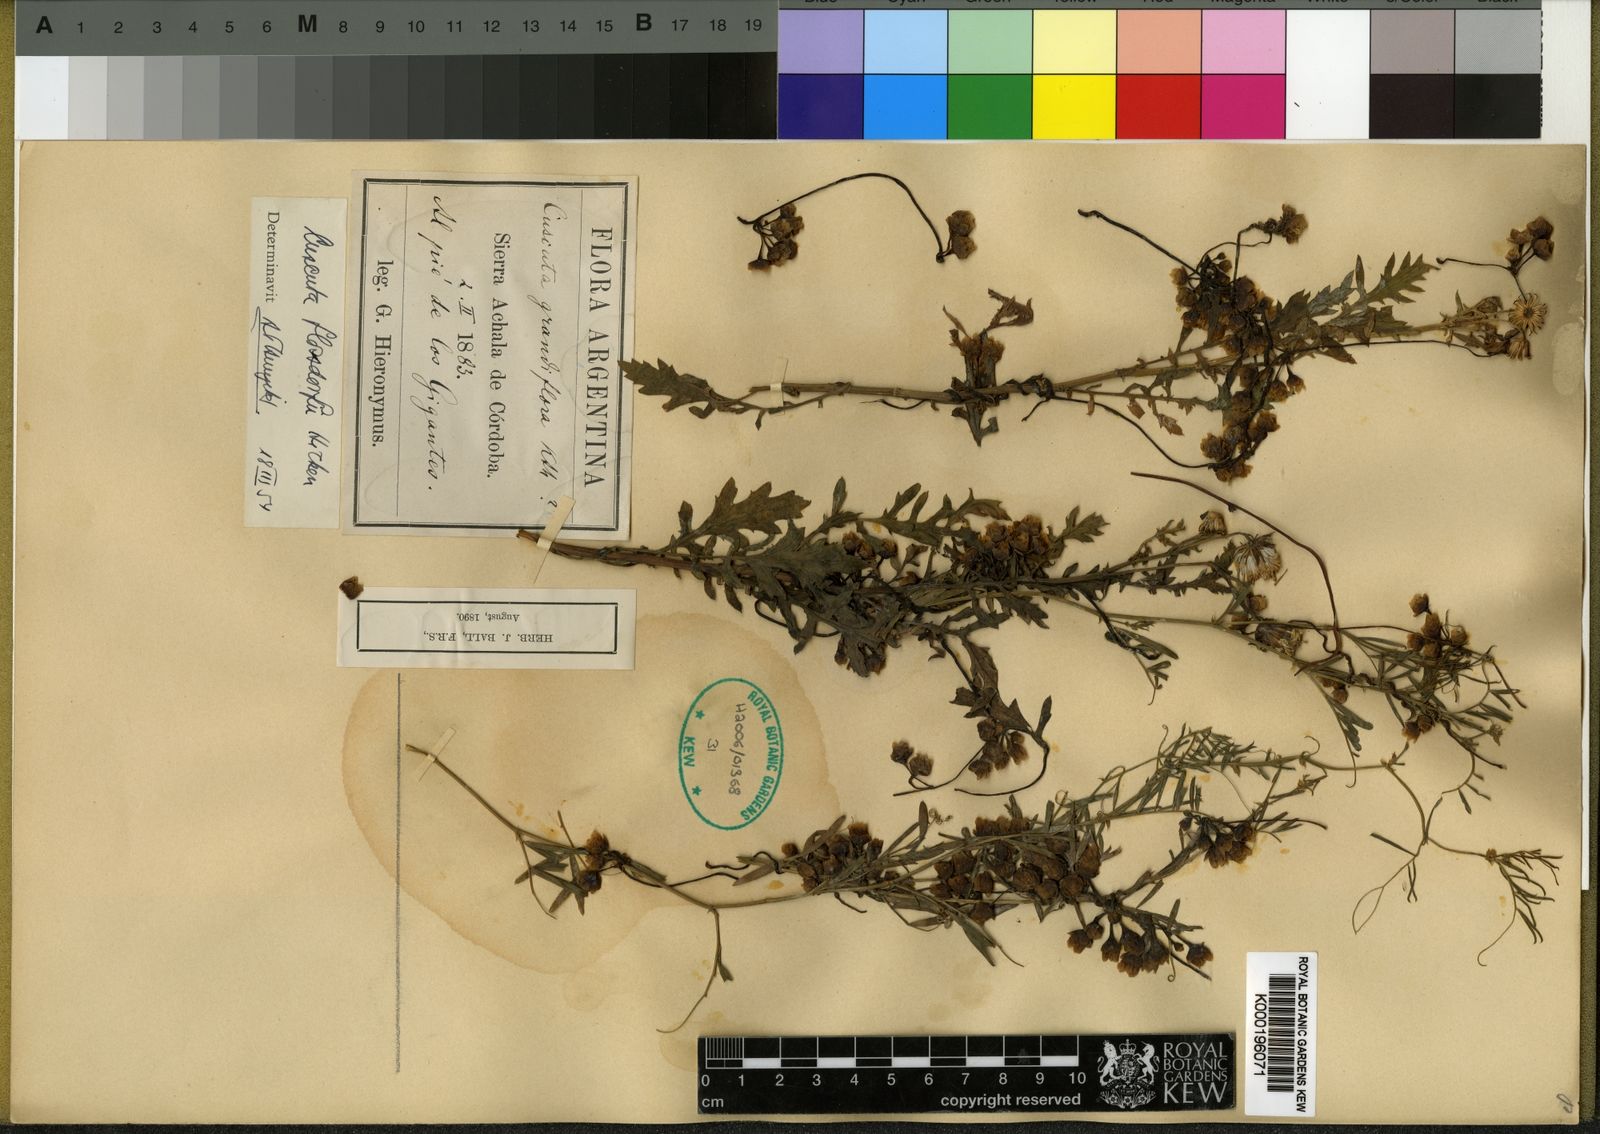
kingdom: Plantae
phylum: Tracheophyta
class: Magnoliopsida
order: Solanales
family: Convolvulaceae
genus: Cuscuta
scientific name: Cuscuta flossdorfii
